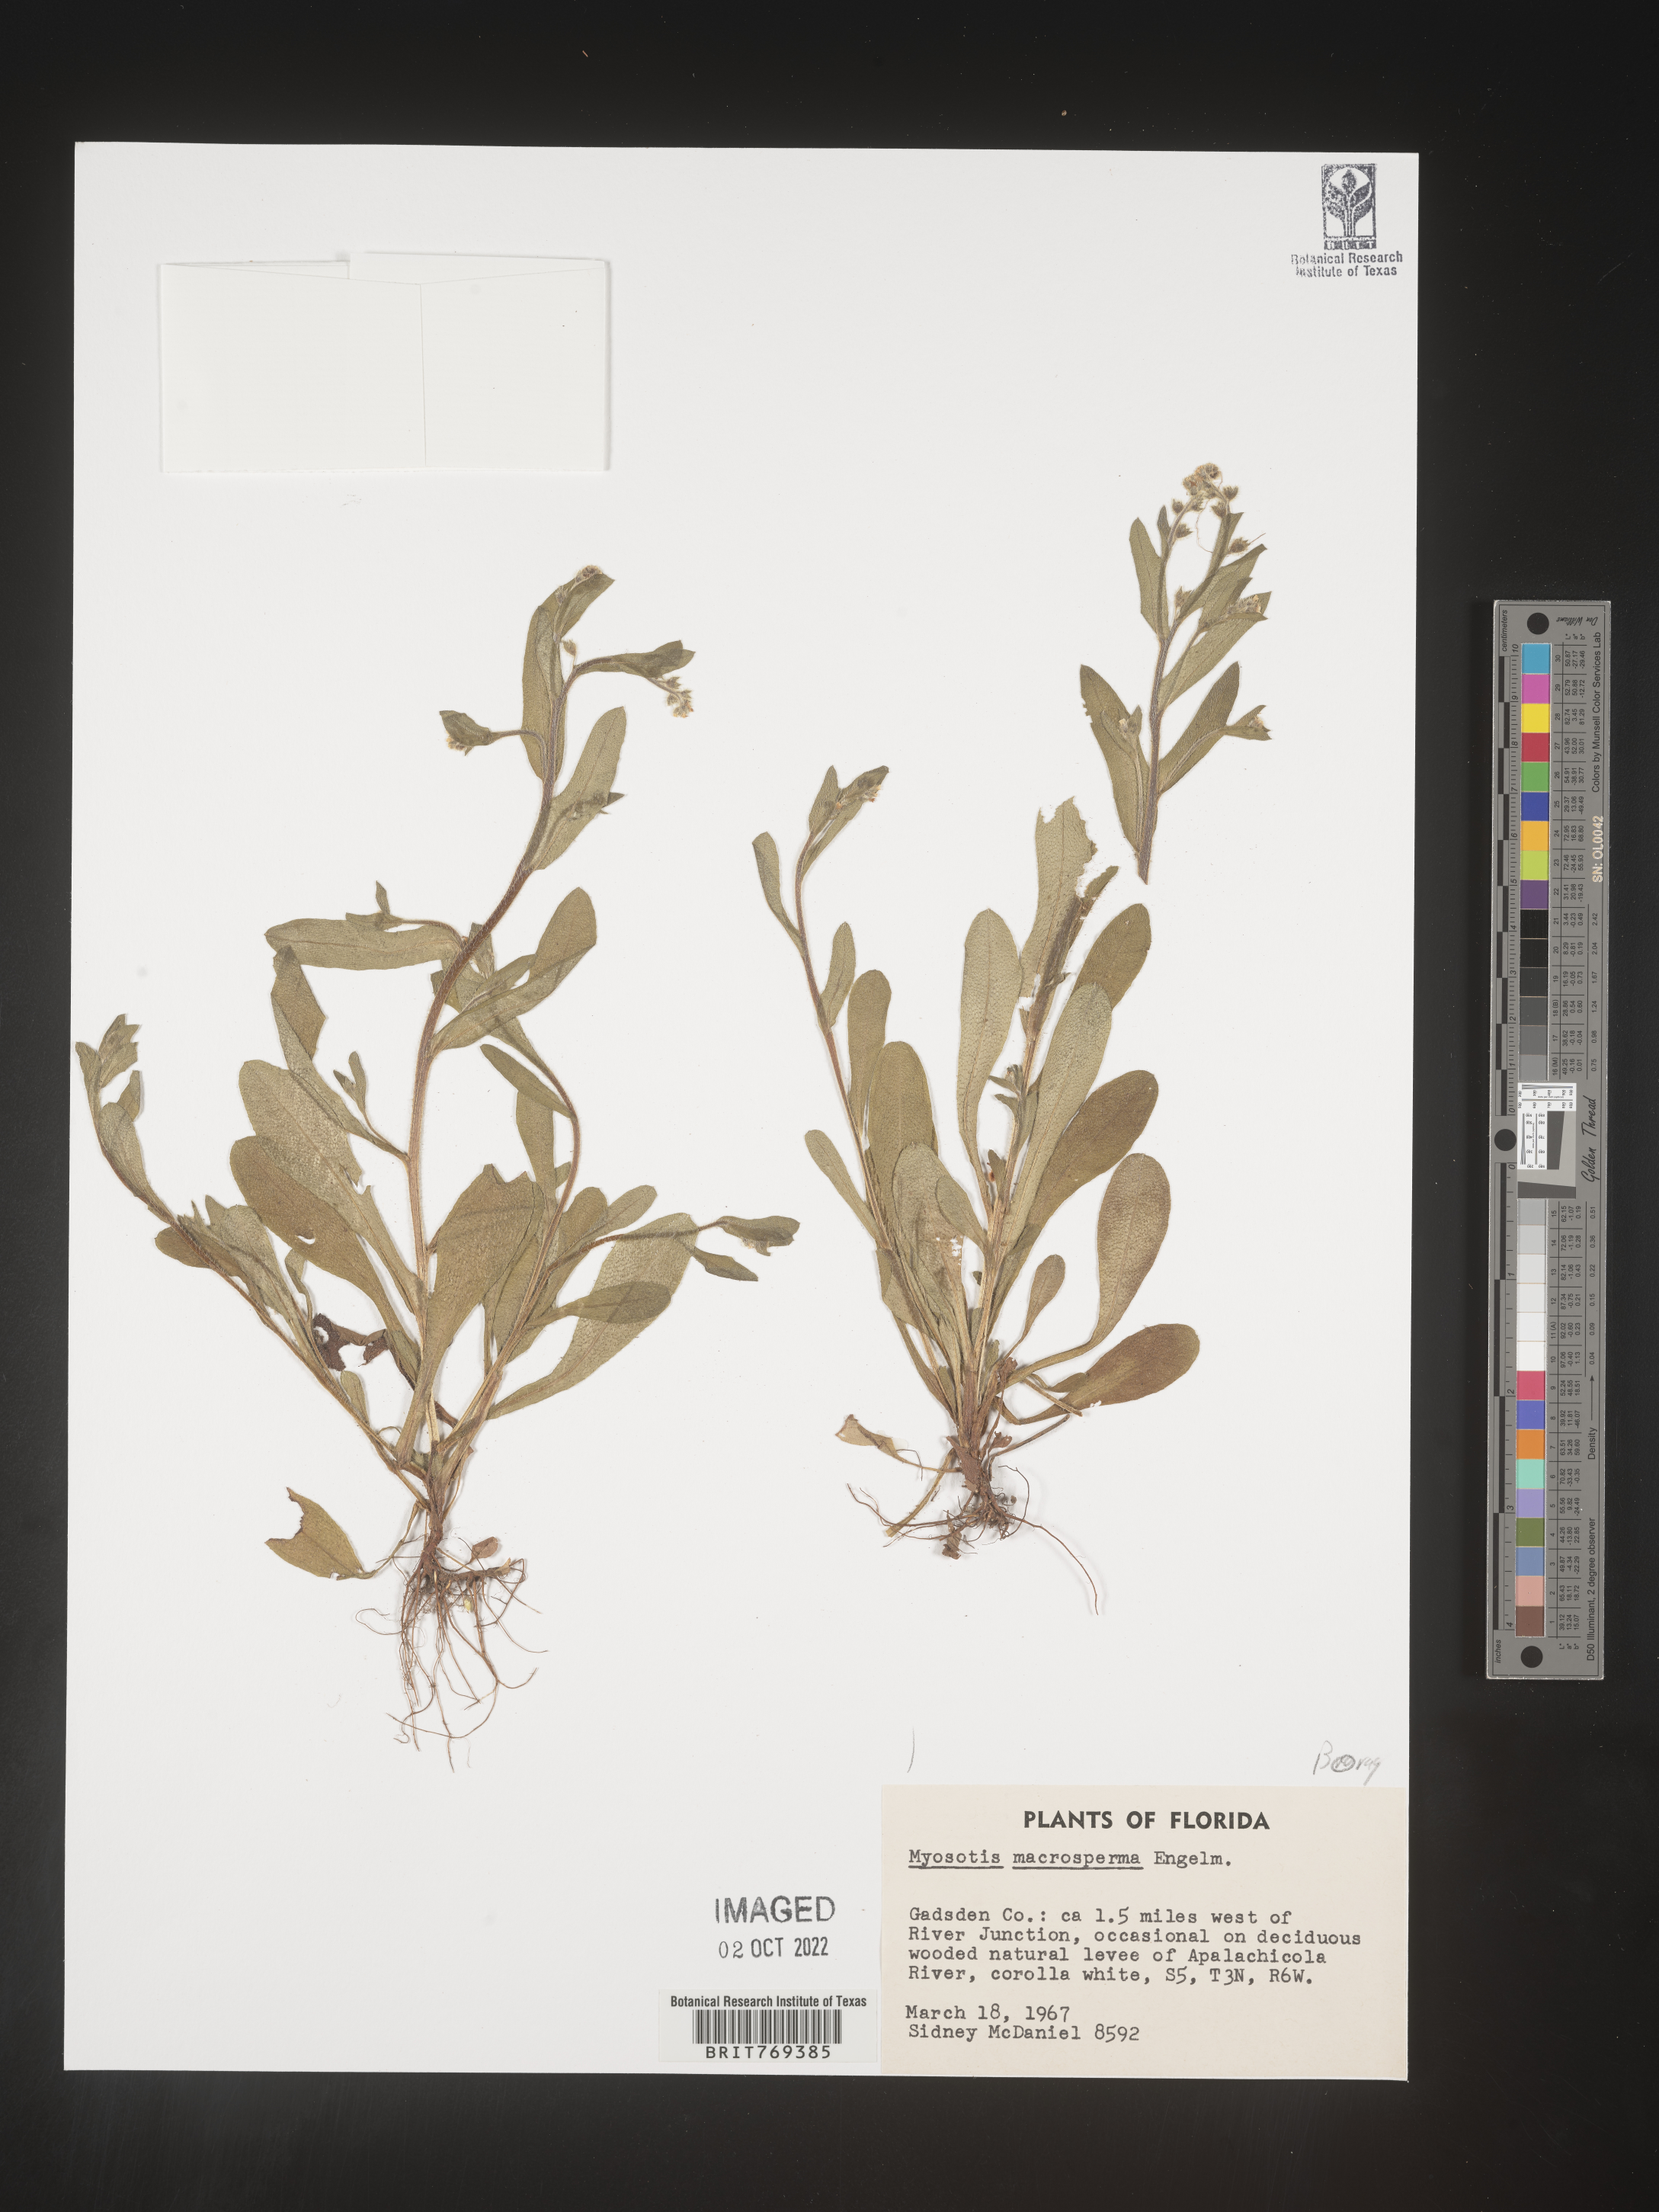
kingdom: Plantae
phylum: Tracheophyta
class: Magnoliopsida
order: Boraginales
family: Boraginaceae
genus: Myosotis
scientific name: Myosotis macrosperma
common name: Large-seed forget-me-not
